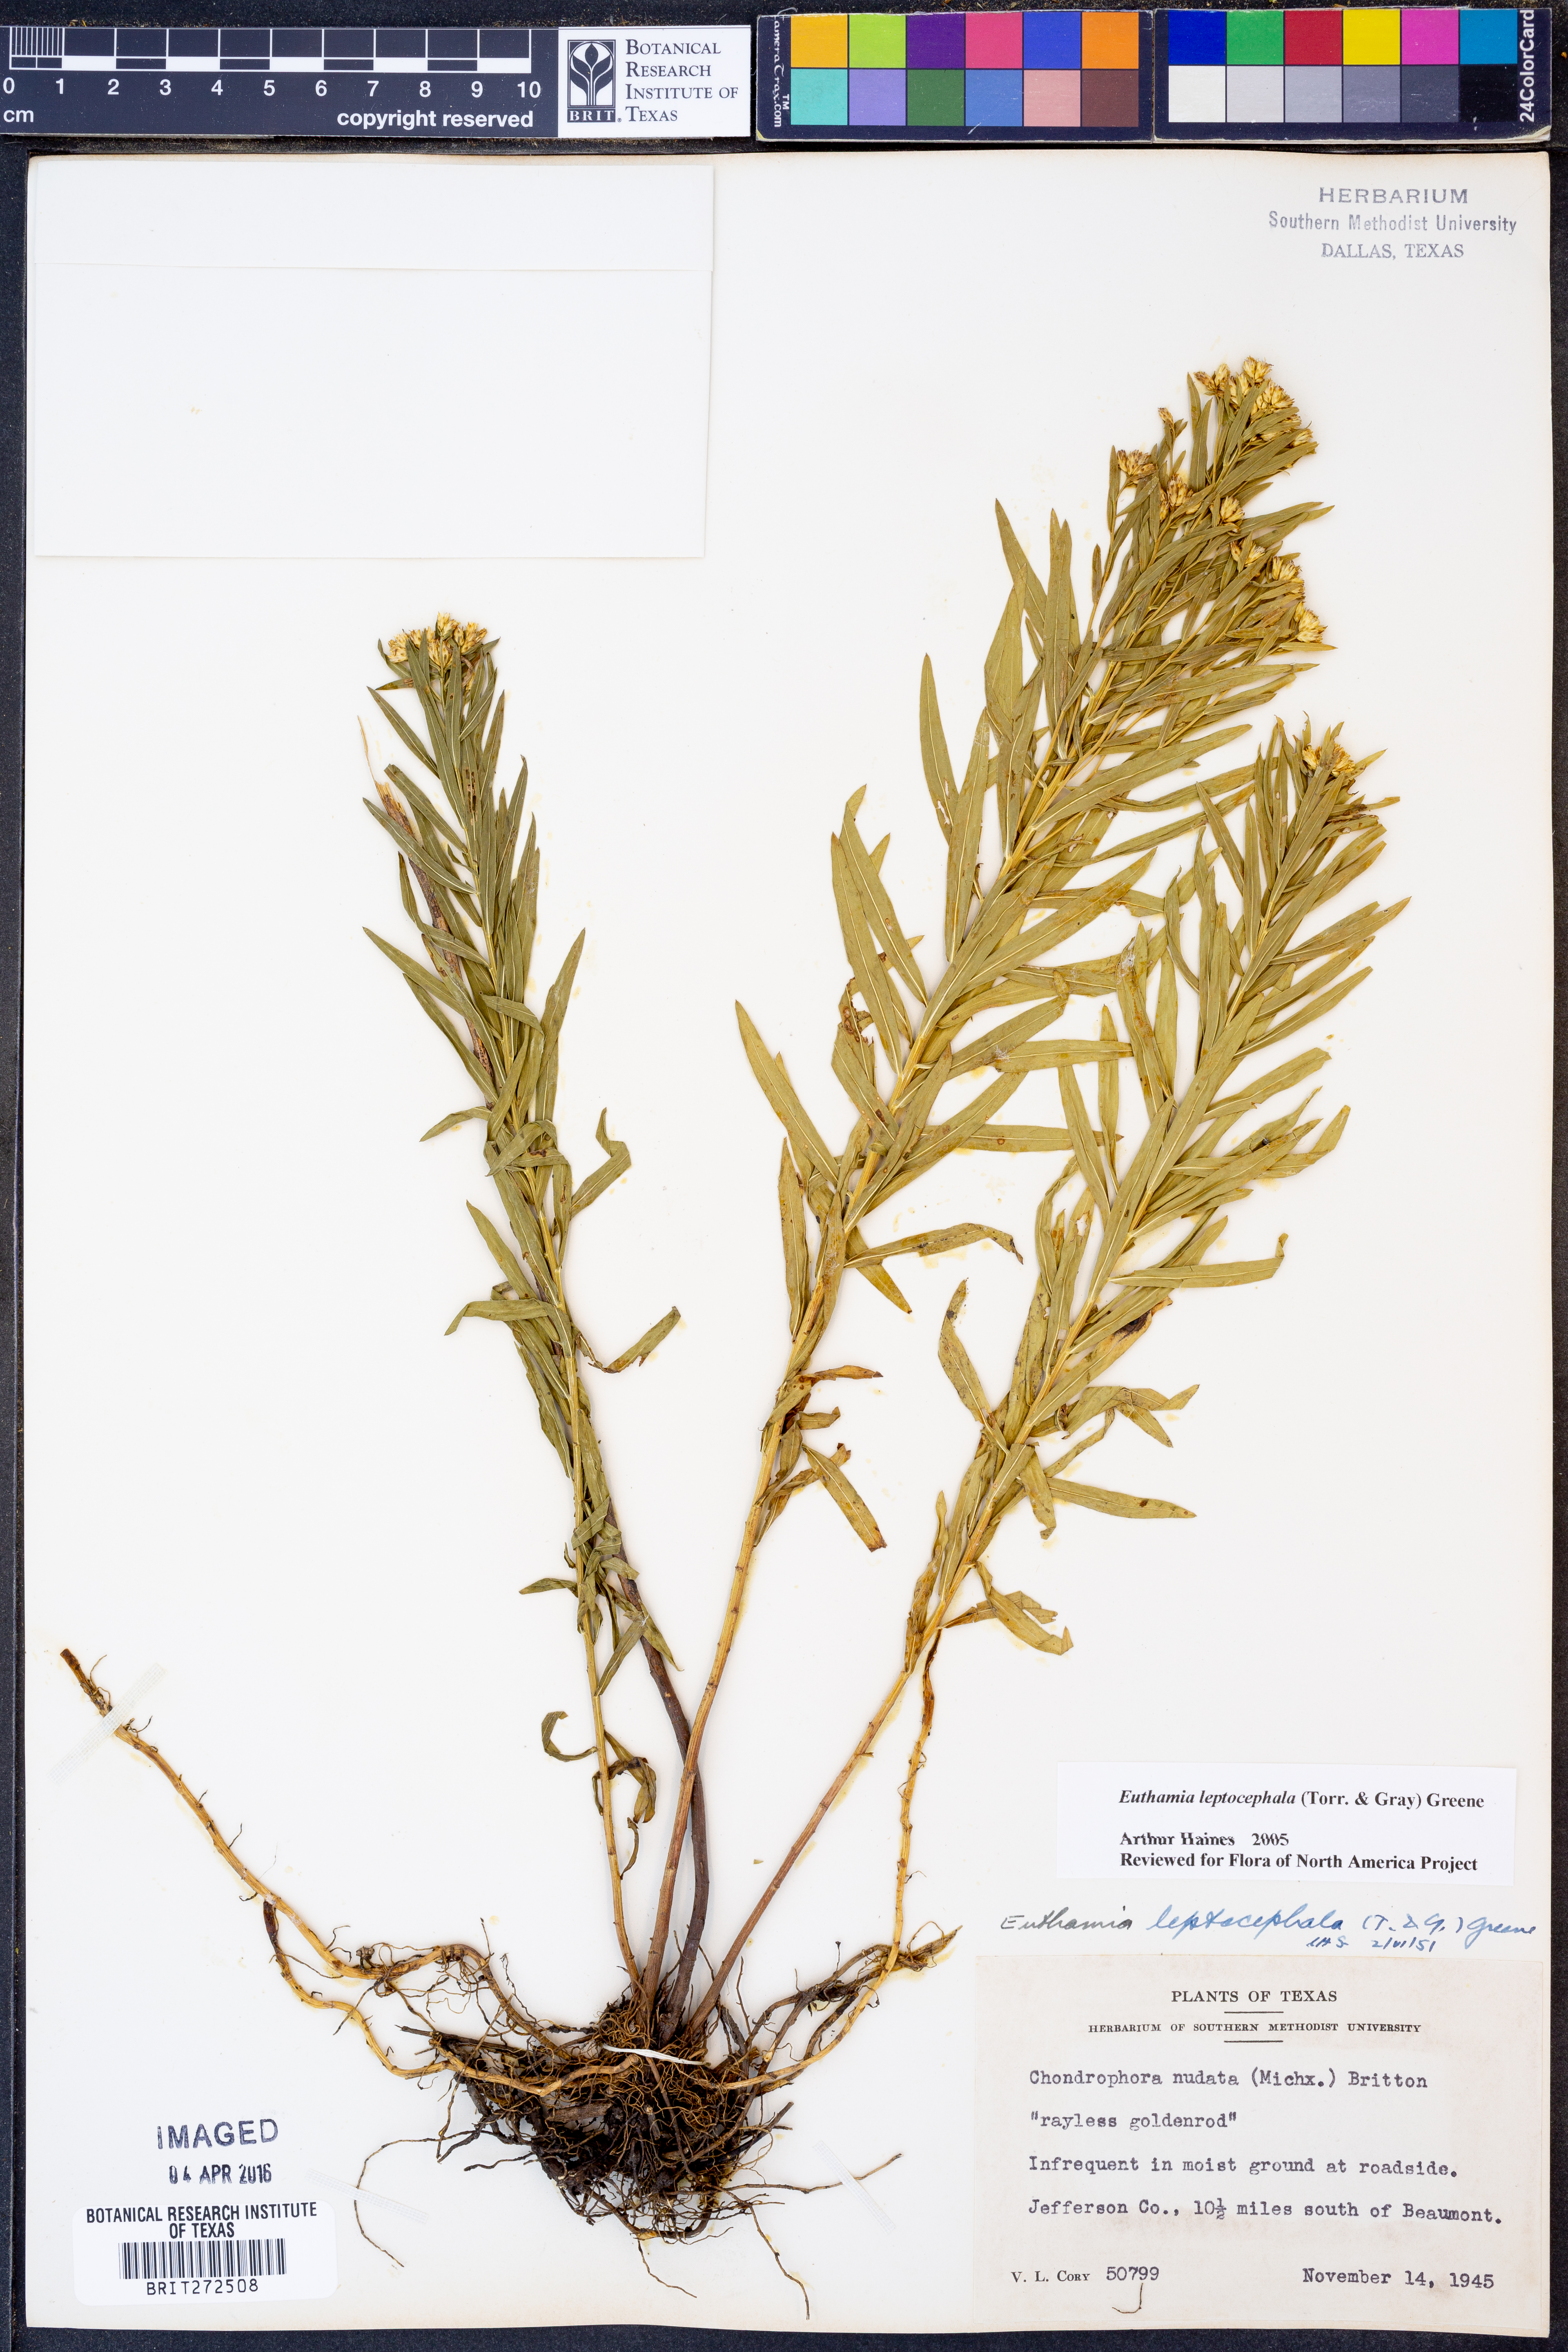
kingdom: Plantae
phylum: Tracheophyta
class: Magnoliopsida
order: Asterales
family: Asteraceae
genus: Euthamia
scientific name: Euthamia leptocephala
